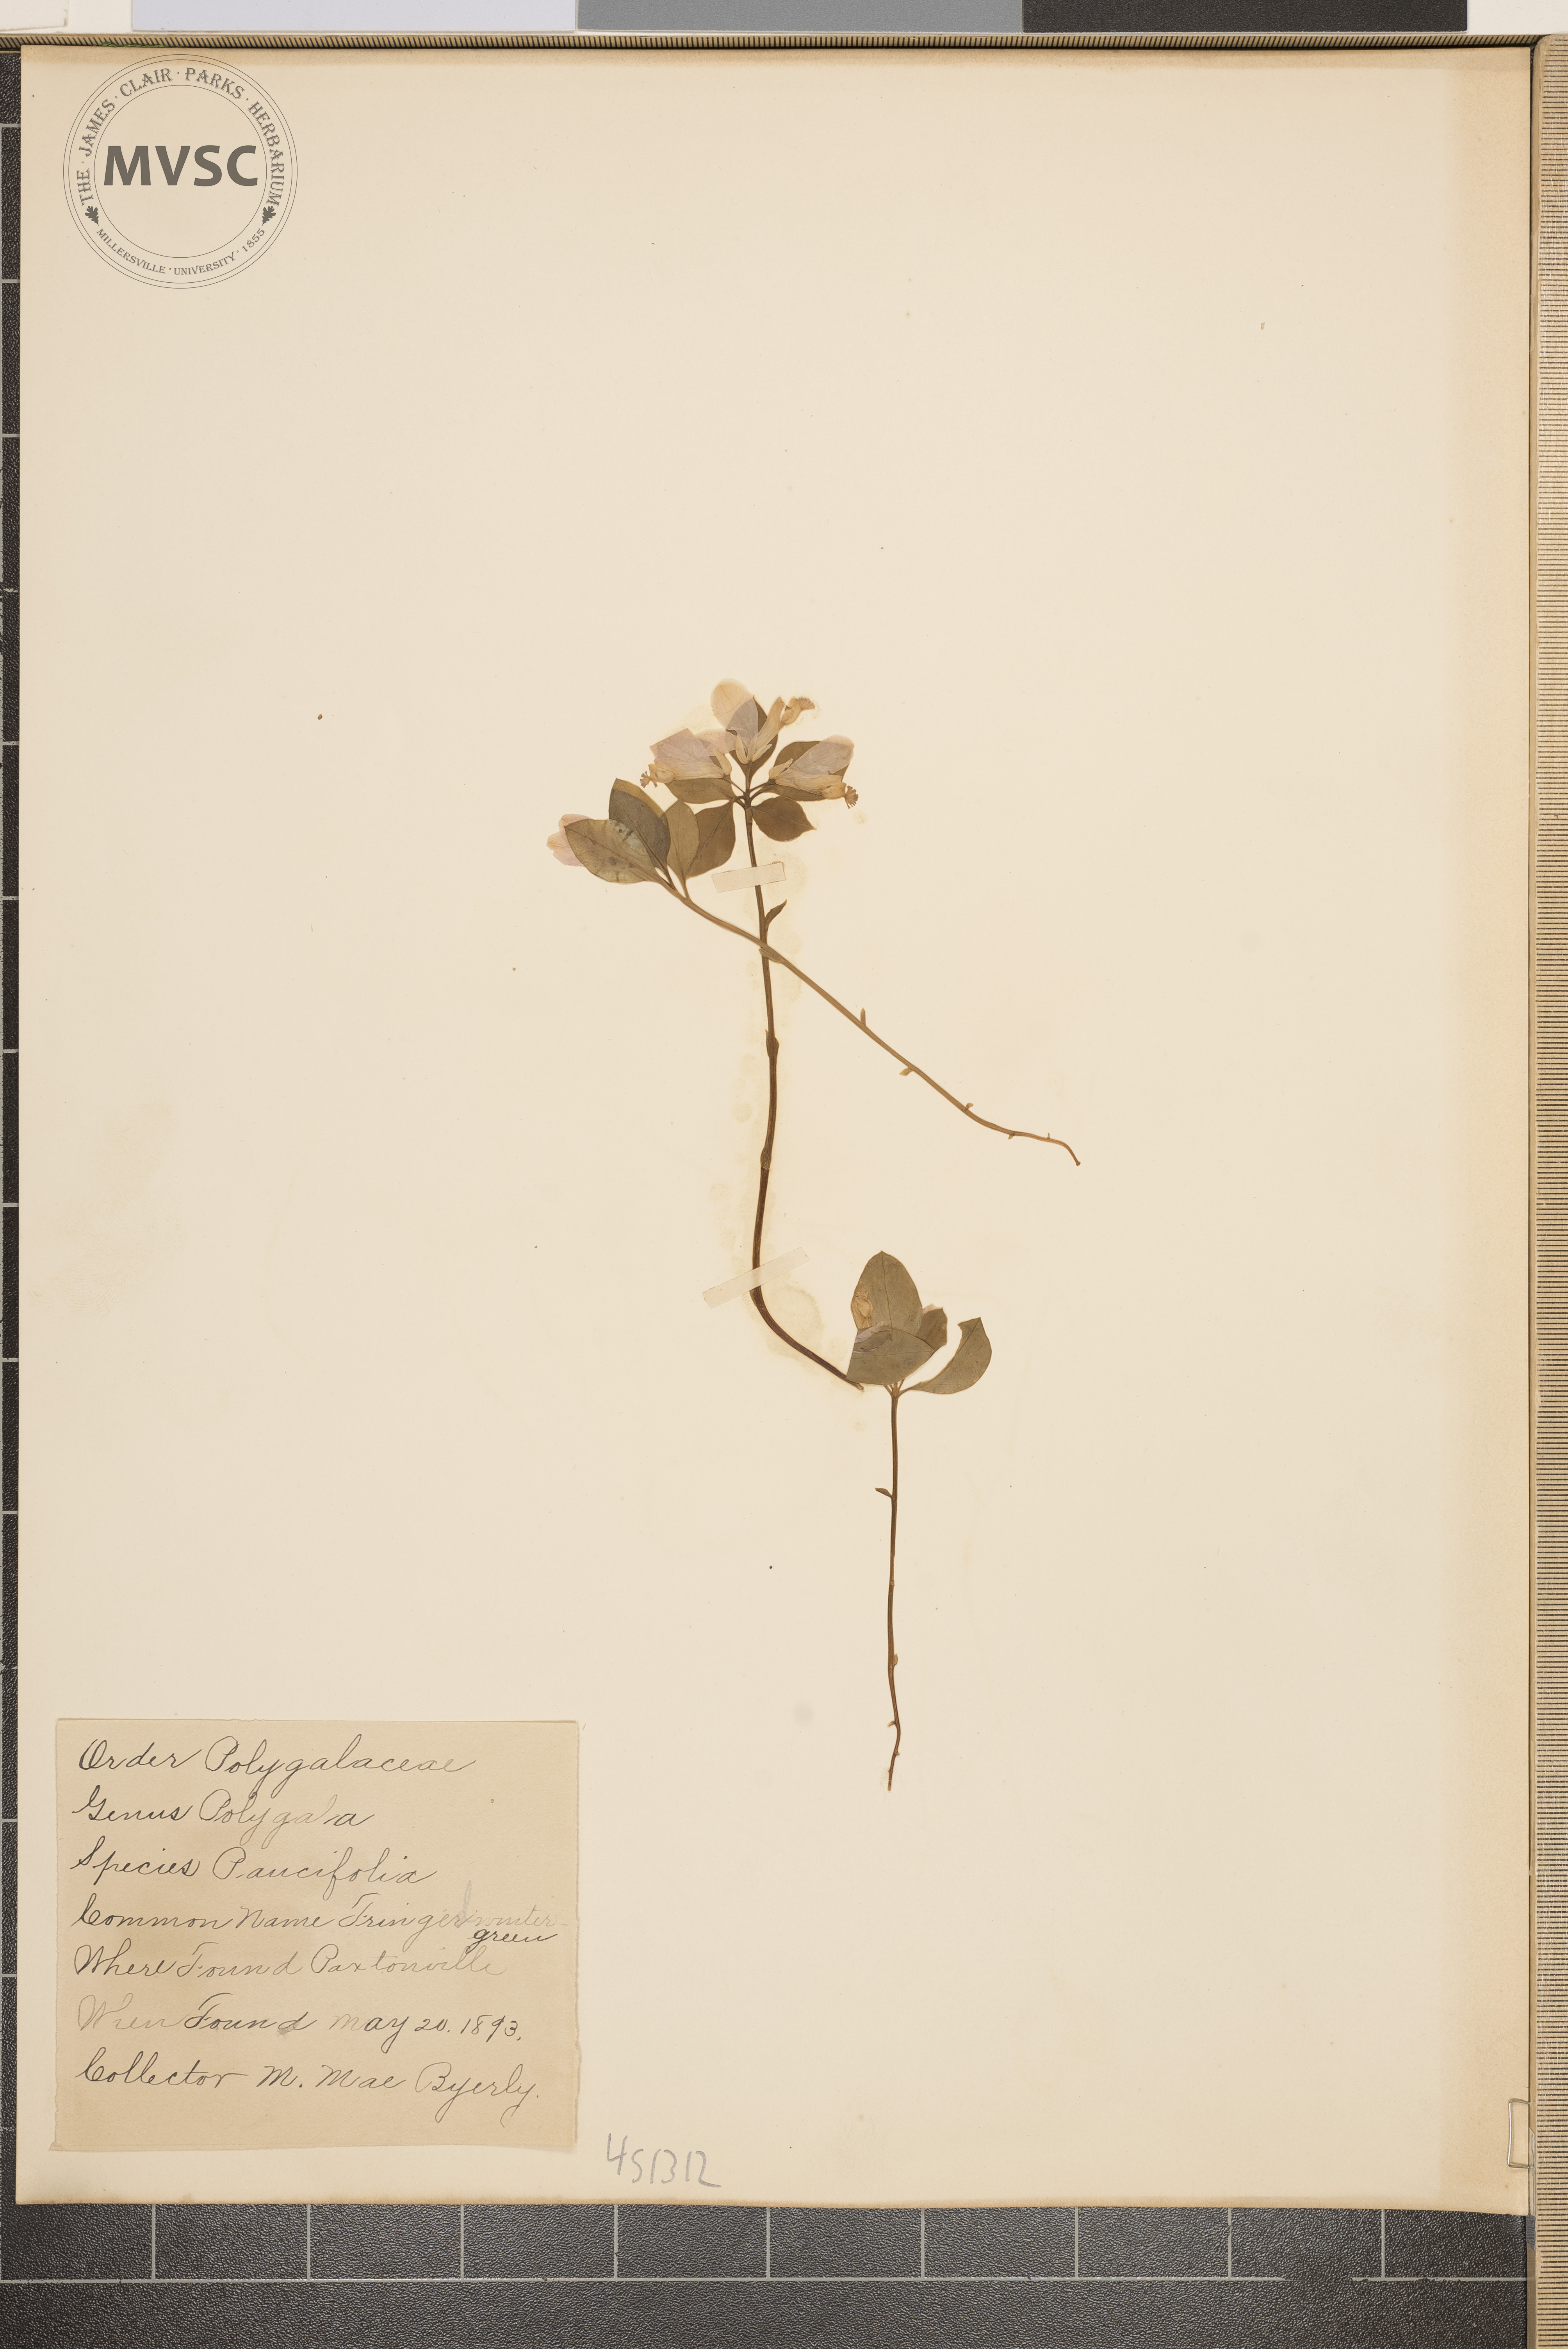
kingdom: Plantae
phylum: Tracheophyta
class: Magnoliopsida
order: Fabales
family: Polygalaceae
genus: Polygaloides
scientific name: Polygaloides paucifolia
